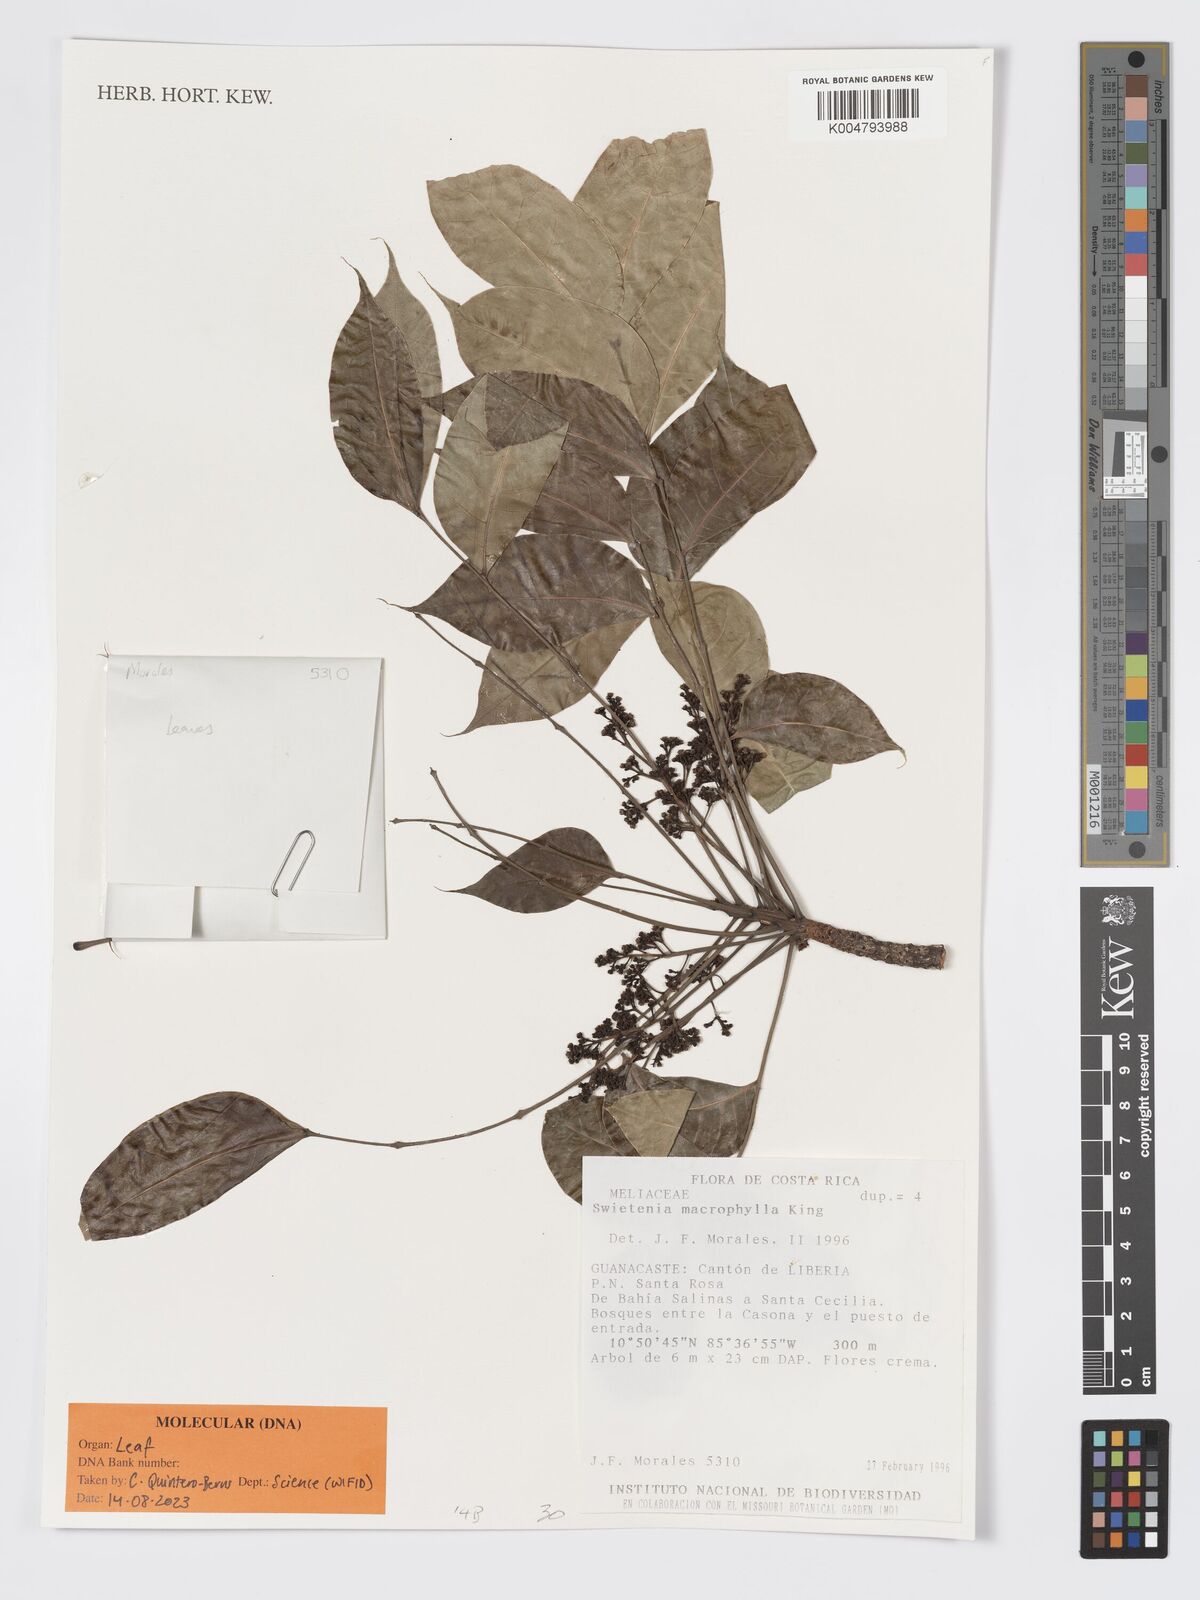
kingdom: Plantae
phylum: Tracheophyta
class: Magnoliopsida
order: Sapindales
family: Meliaceae
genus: Swietenia
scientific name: Swietenia macrophylla
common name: Honduras mahogany
